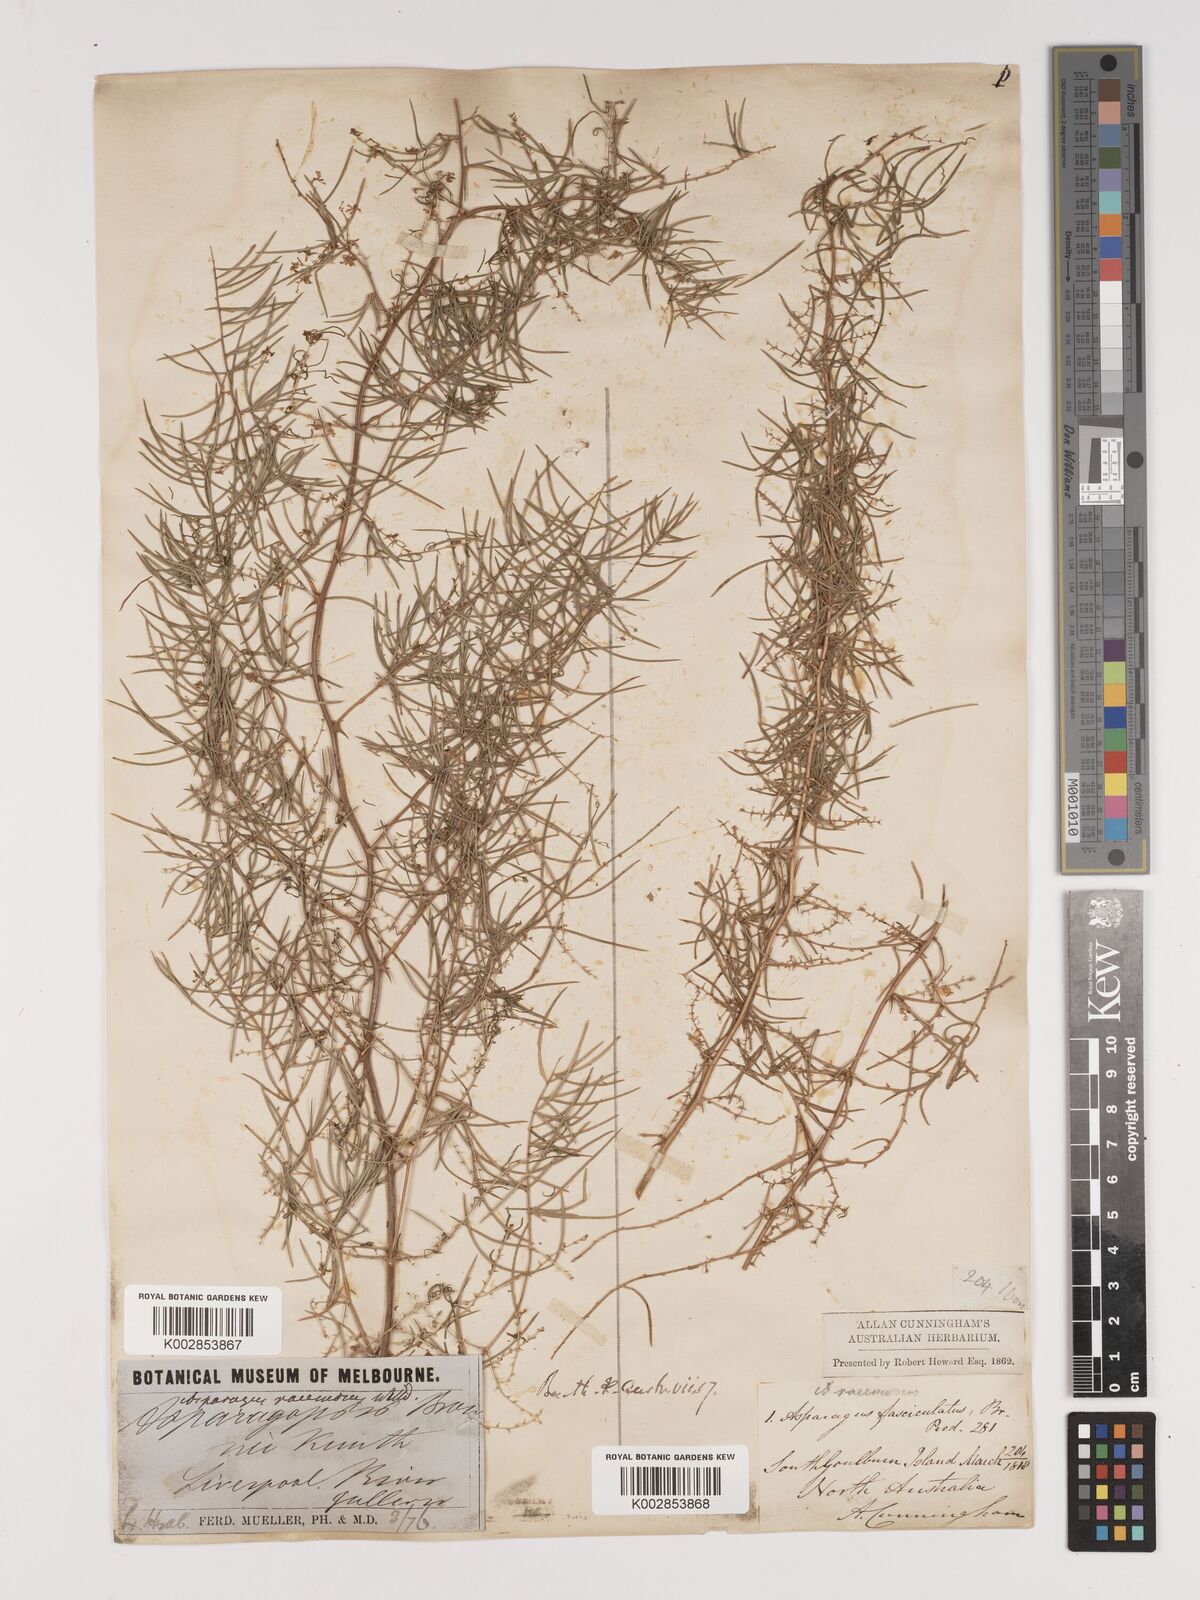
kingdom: Plantae
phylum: Tracheophyta
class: Liliopsida
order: Asparagales
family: Asparagaceae
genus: Asparagus
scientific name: Asparagus racemosus
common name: Asparagus-fern
